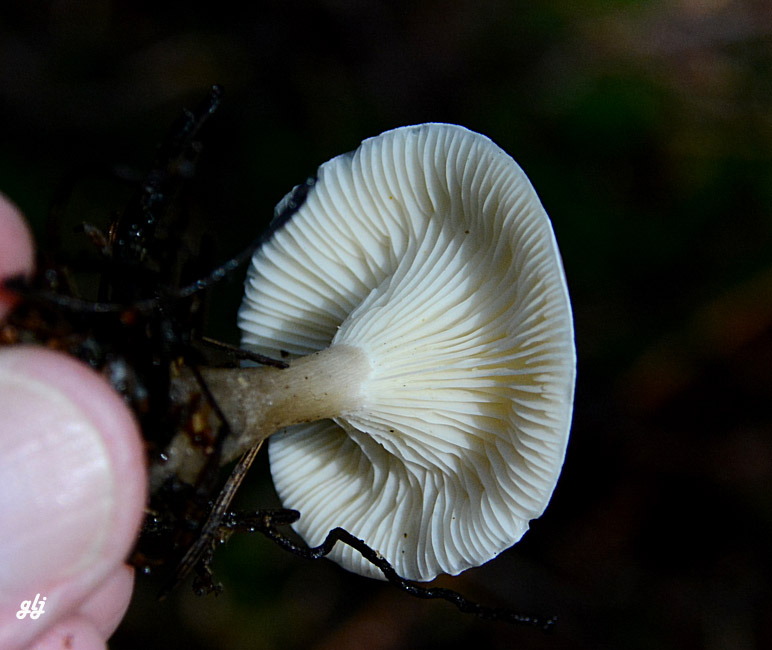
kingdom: Fungi
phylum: Basidiomycota
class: Agaricomycetes
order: Agaricales
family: Hygrophoraceae
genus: Ampulloclitocybe
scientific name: Ampulloclitocybe clavipes
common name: køllefod
